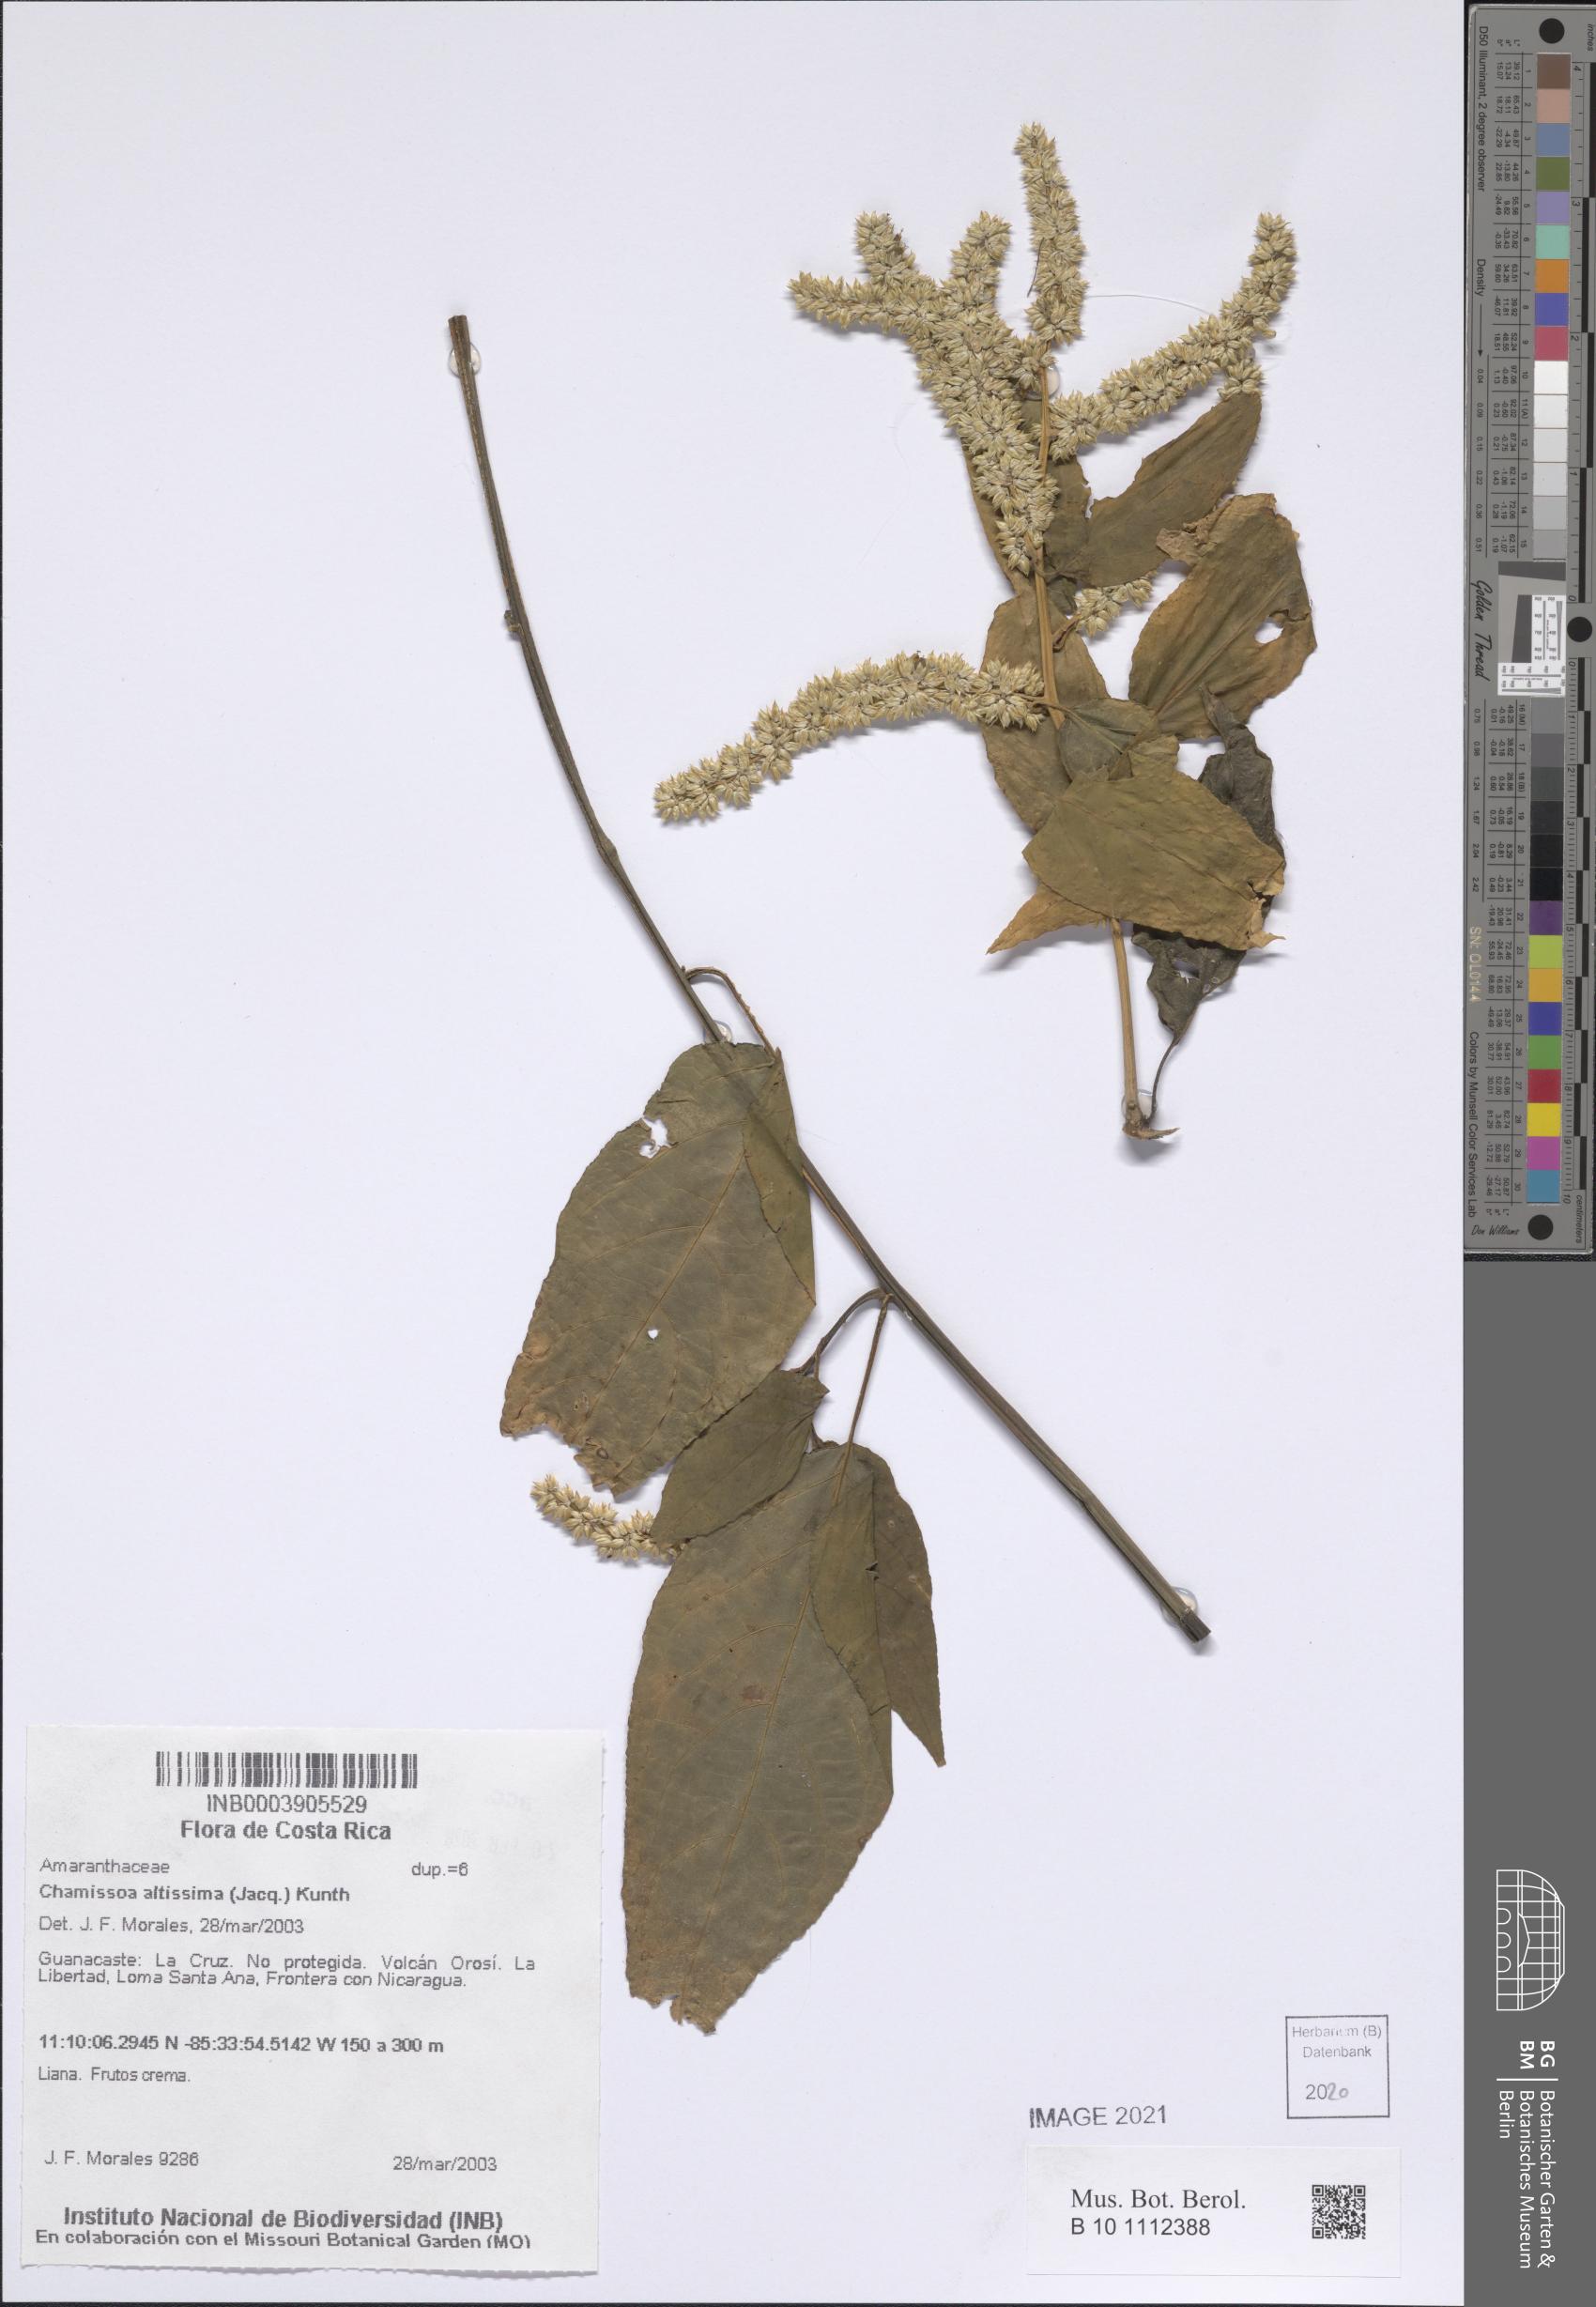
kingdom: Plantae
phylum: Tracheophyta
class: Magnoliopsida
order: Caryophyllales
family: Amaranthaceae
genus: Chamissoa
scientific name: Chamissoa altissima
